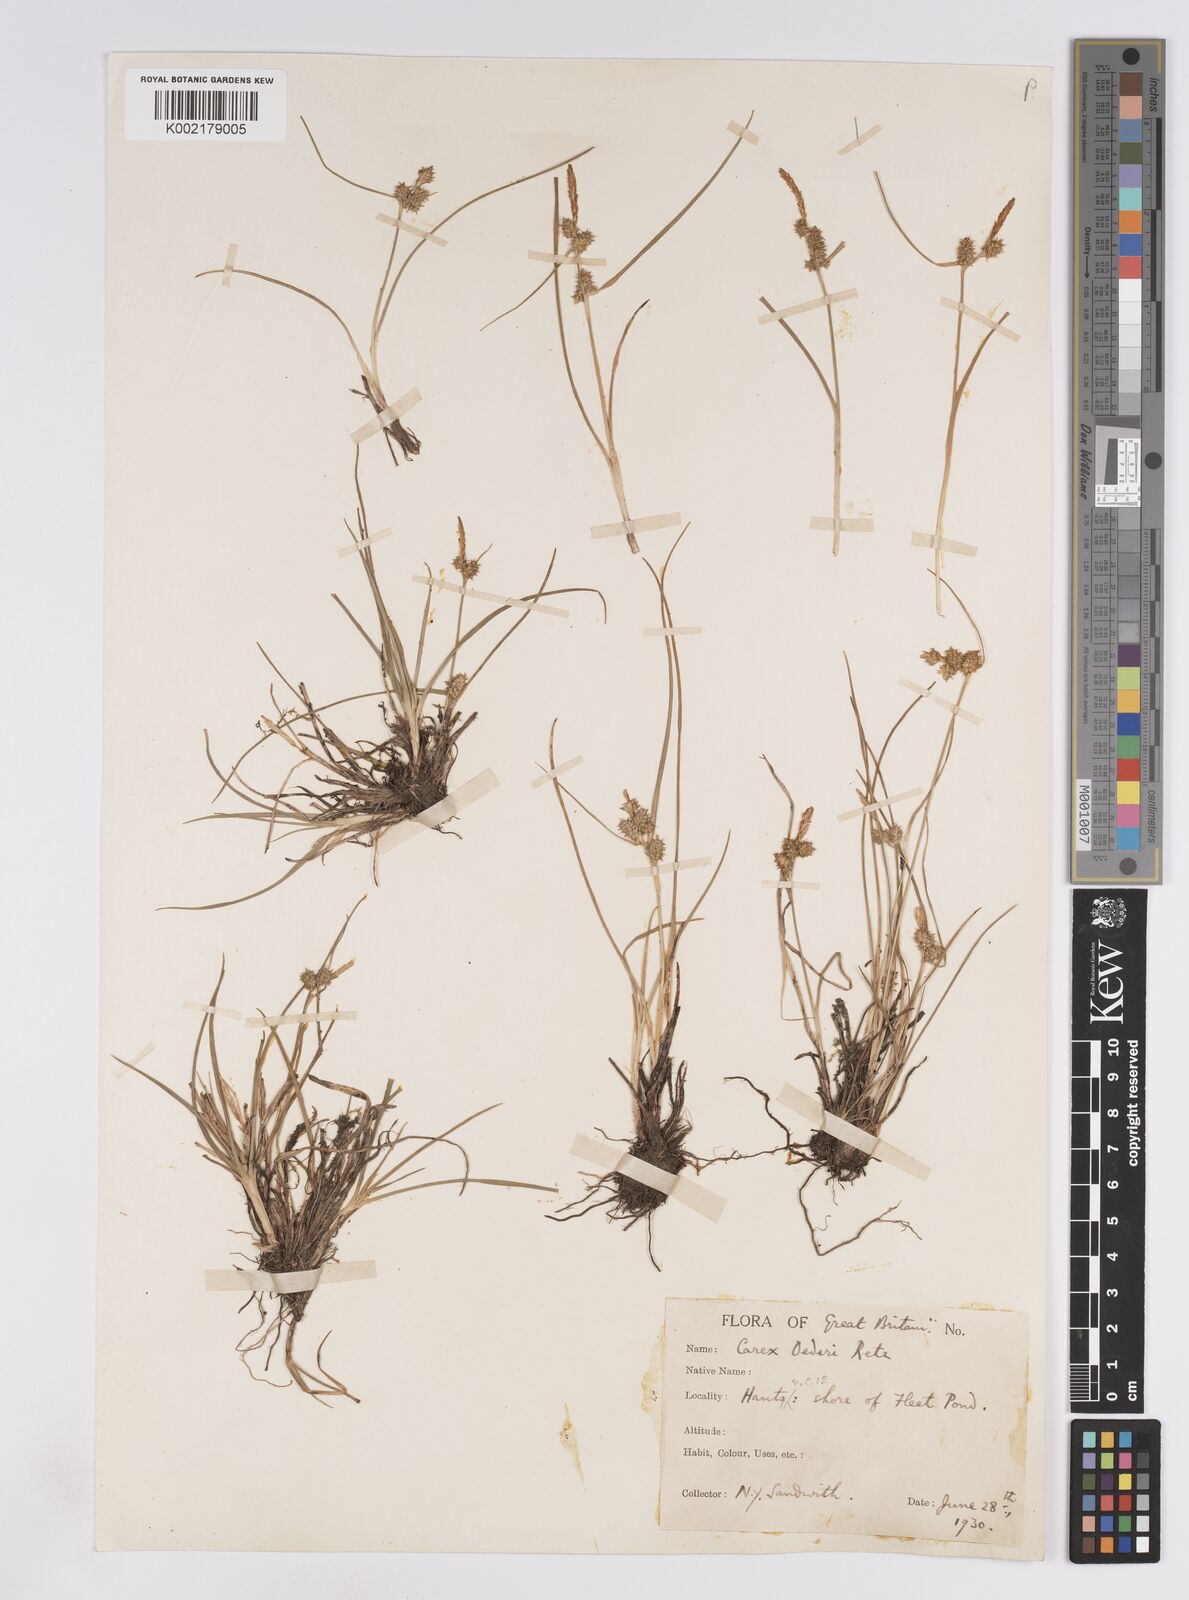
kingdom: Plantae
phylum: Tracheophyta
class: Liliopsida
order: Poales
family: Cyperaceae
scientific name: Cyperaceae
